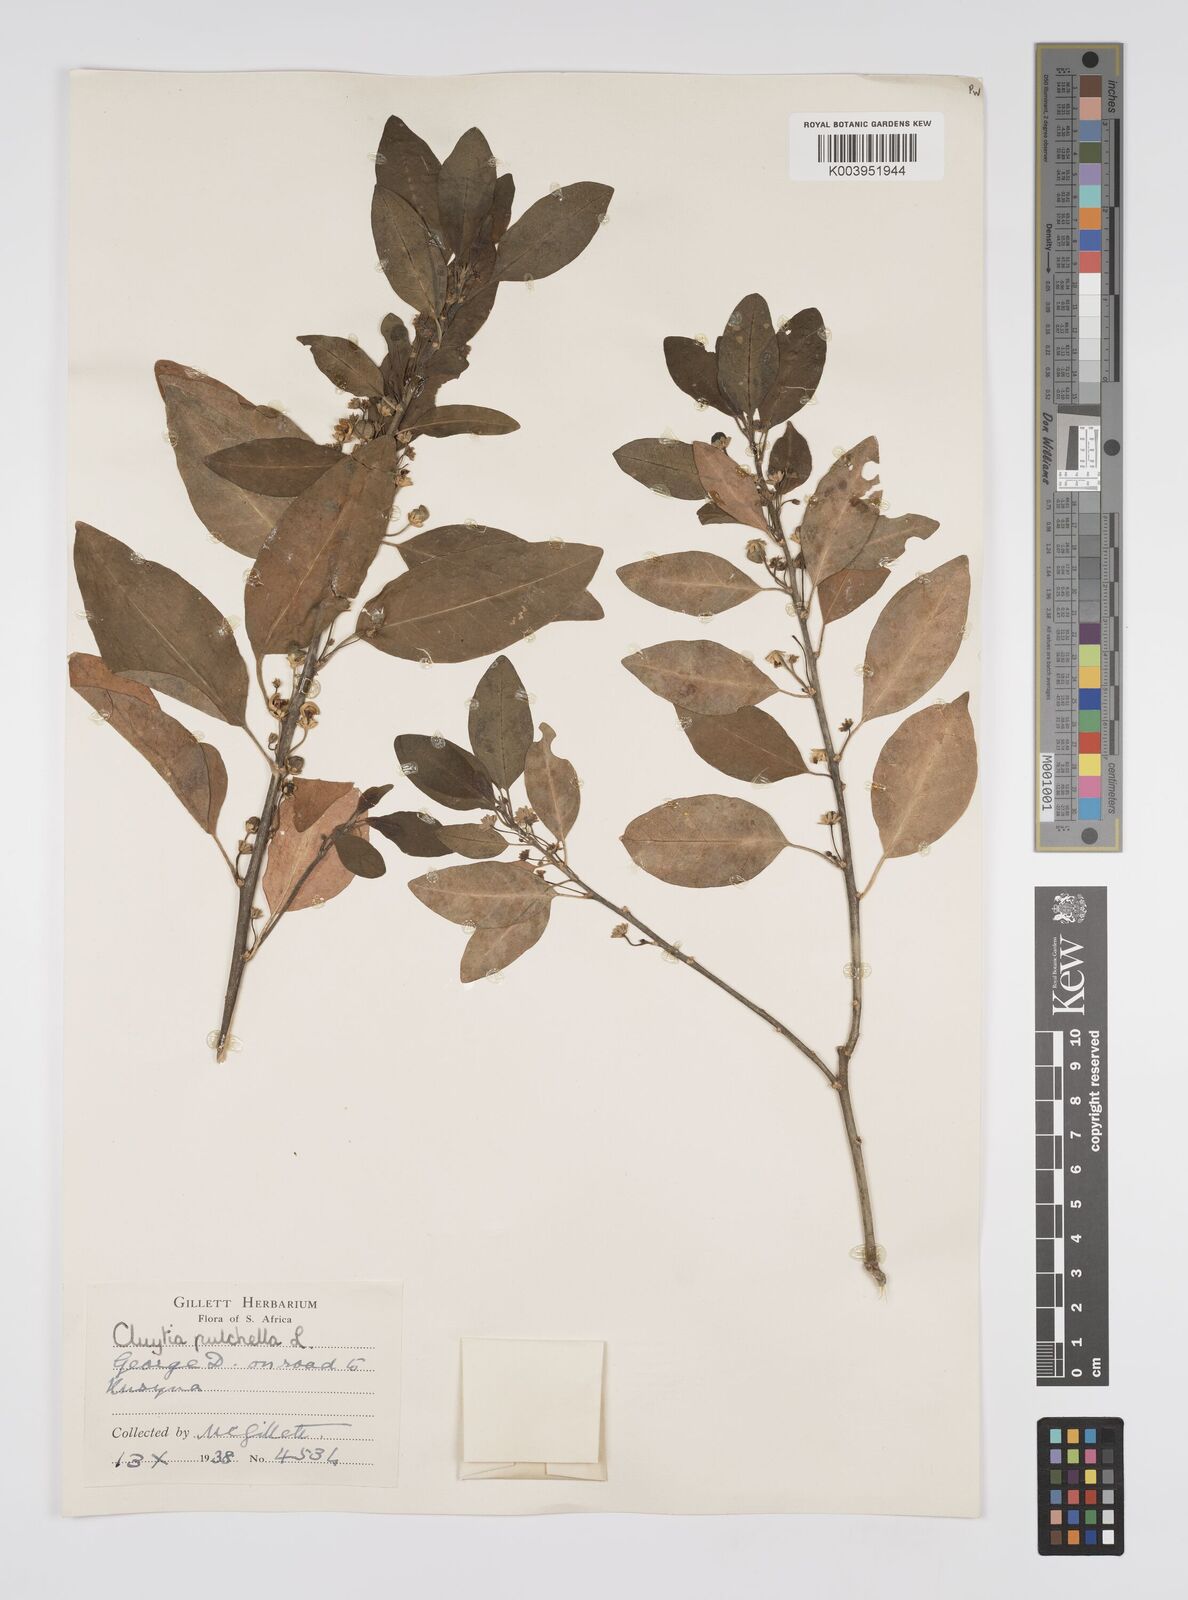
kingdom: Plantae
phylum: Tracheophyta
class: Magnoliopsida
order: Malpighiales
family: Peraceae
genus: Clutia
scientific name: Clutia pulchella
